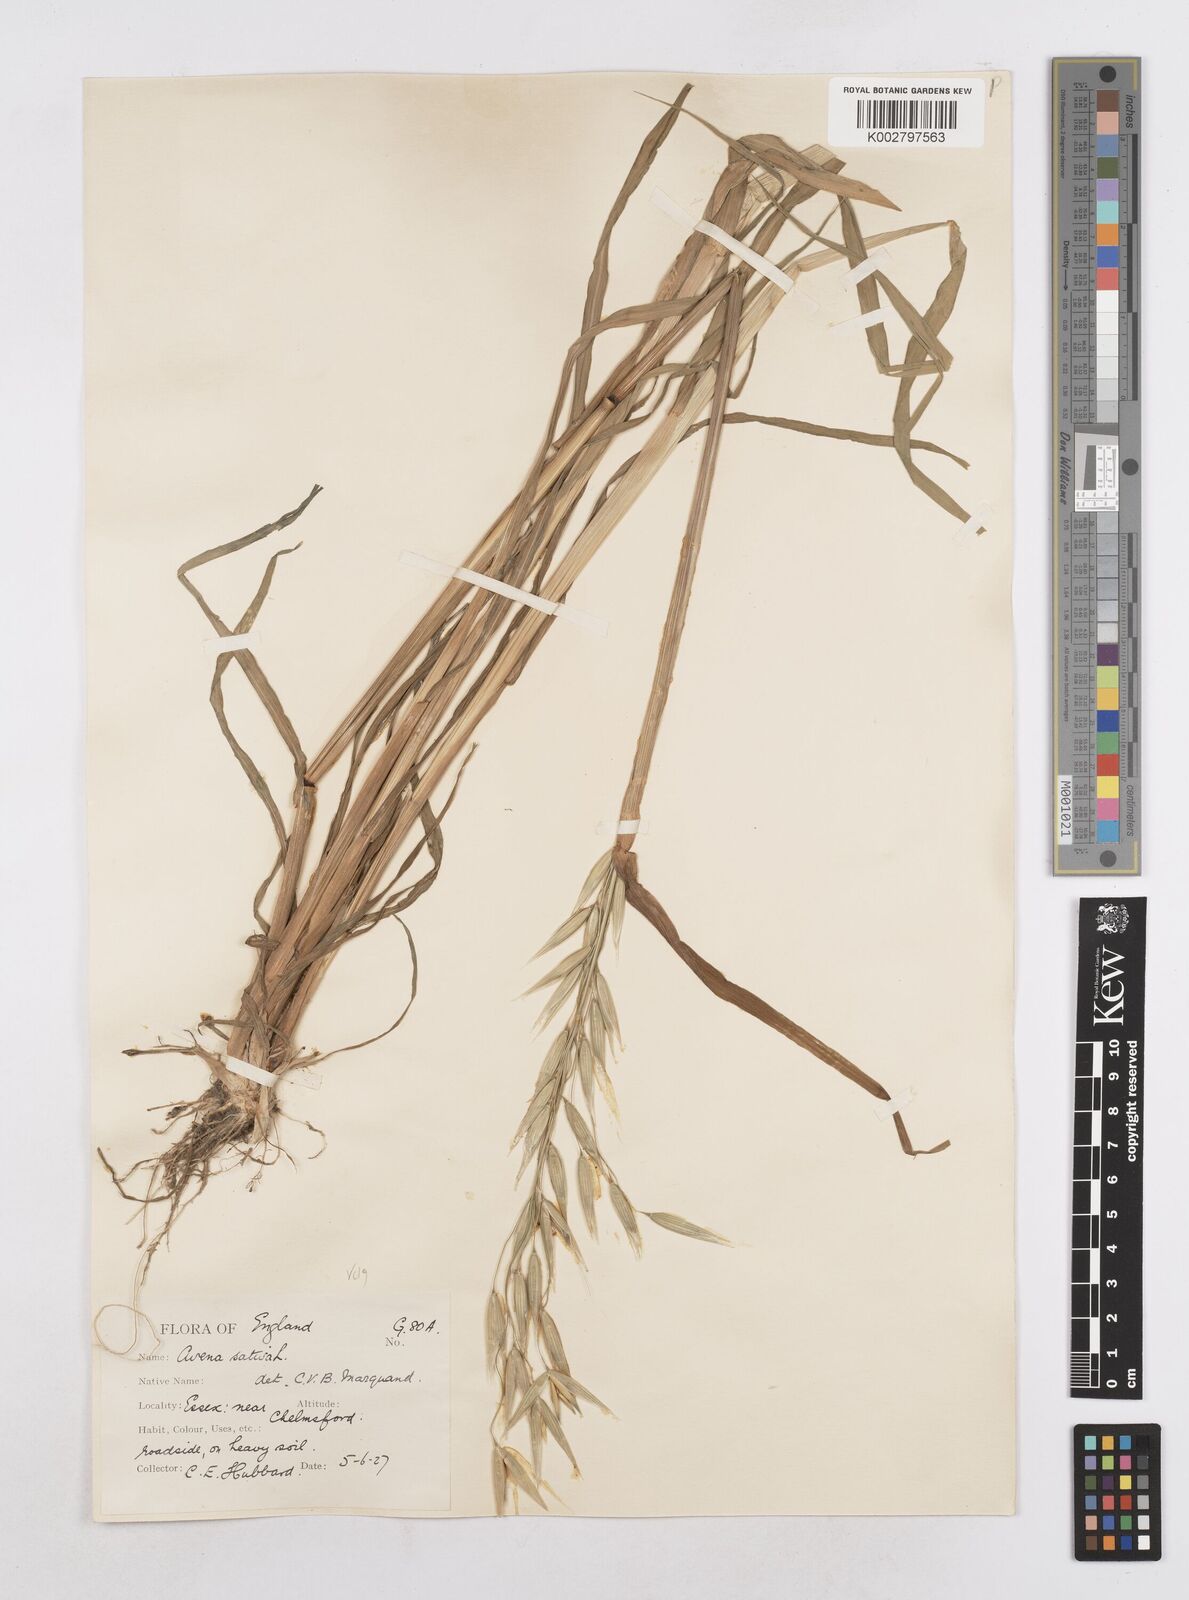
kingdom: Plantae
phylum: Tracheophyta
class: Liliopsida
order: Poales
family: Poaceae
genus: Avena
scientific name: Avena sativa
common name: Oat
